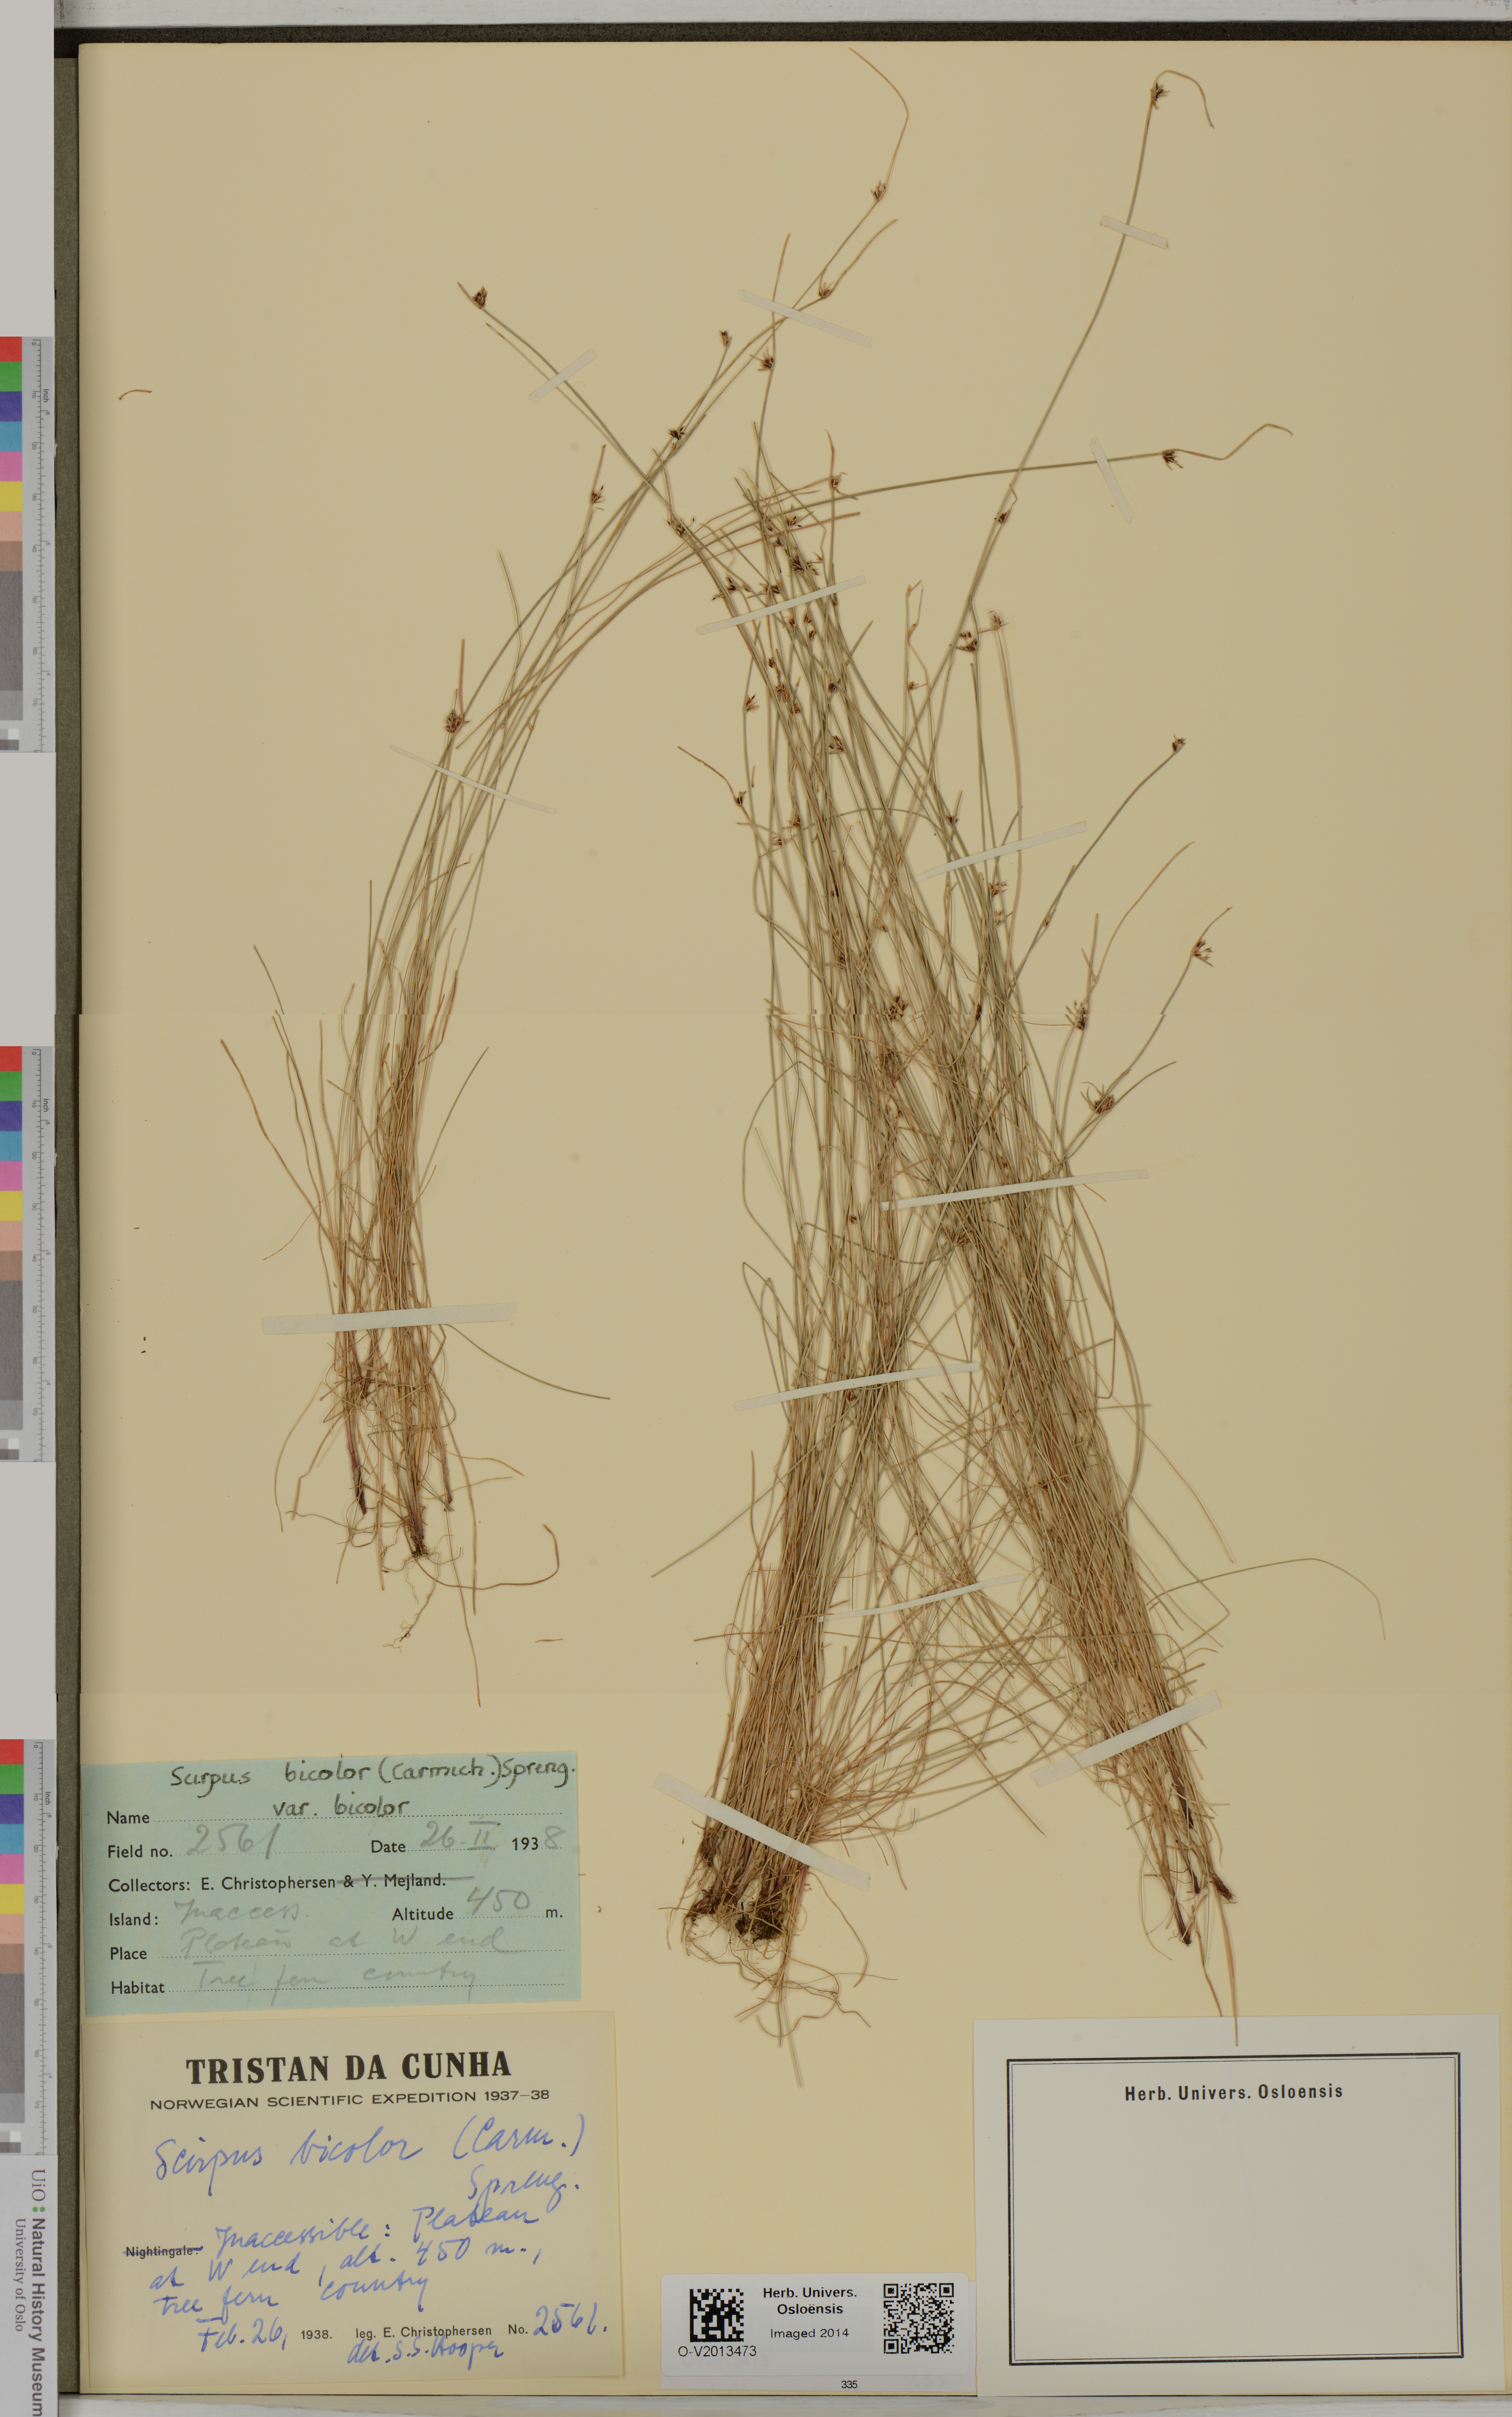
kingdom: Plantae
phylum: Tracheophyta
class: Liliopsida
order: Poales
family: Cyperaceae
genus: Isolepis
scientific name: Isolepis bicolor
